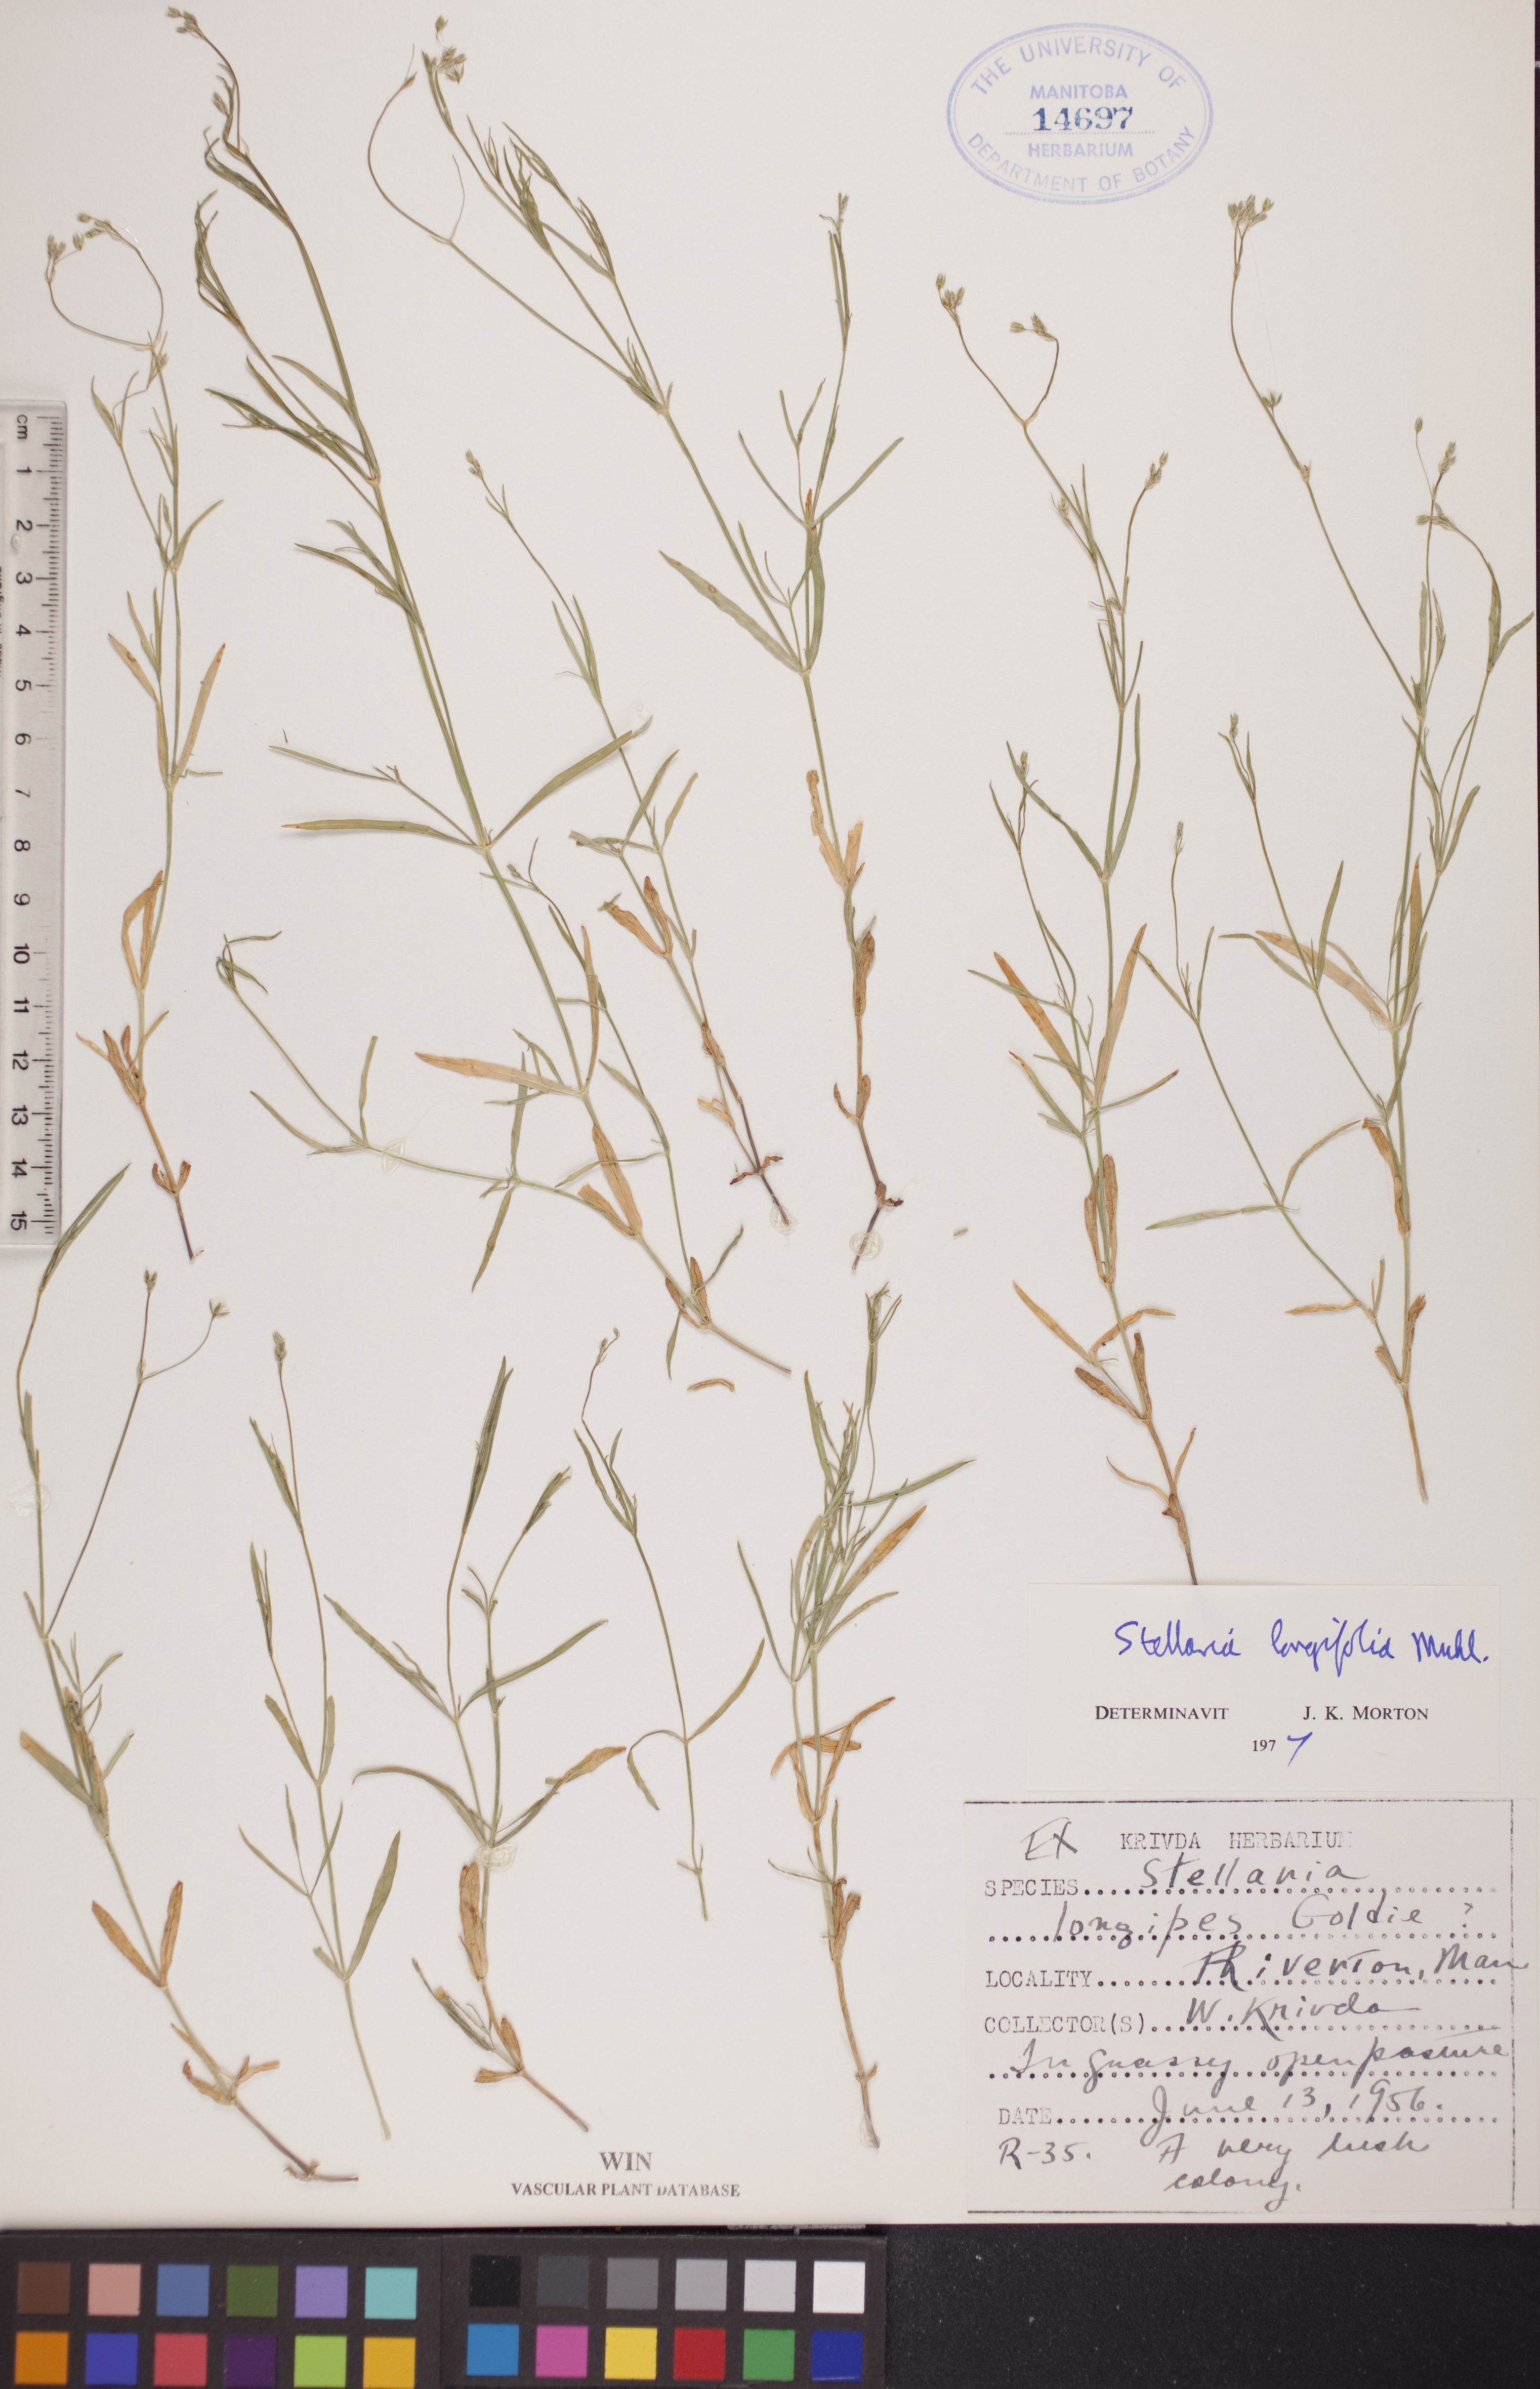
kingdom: Plantae
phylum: Tracheophyta
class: Magnoliopsida
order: Caryophyllales
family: Caryophyllaceae
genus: Stellaria
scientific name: Stellaria longifolia
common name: Long-leaved chickweed
